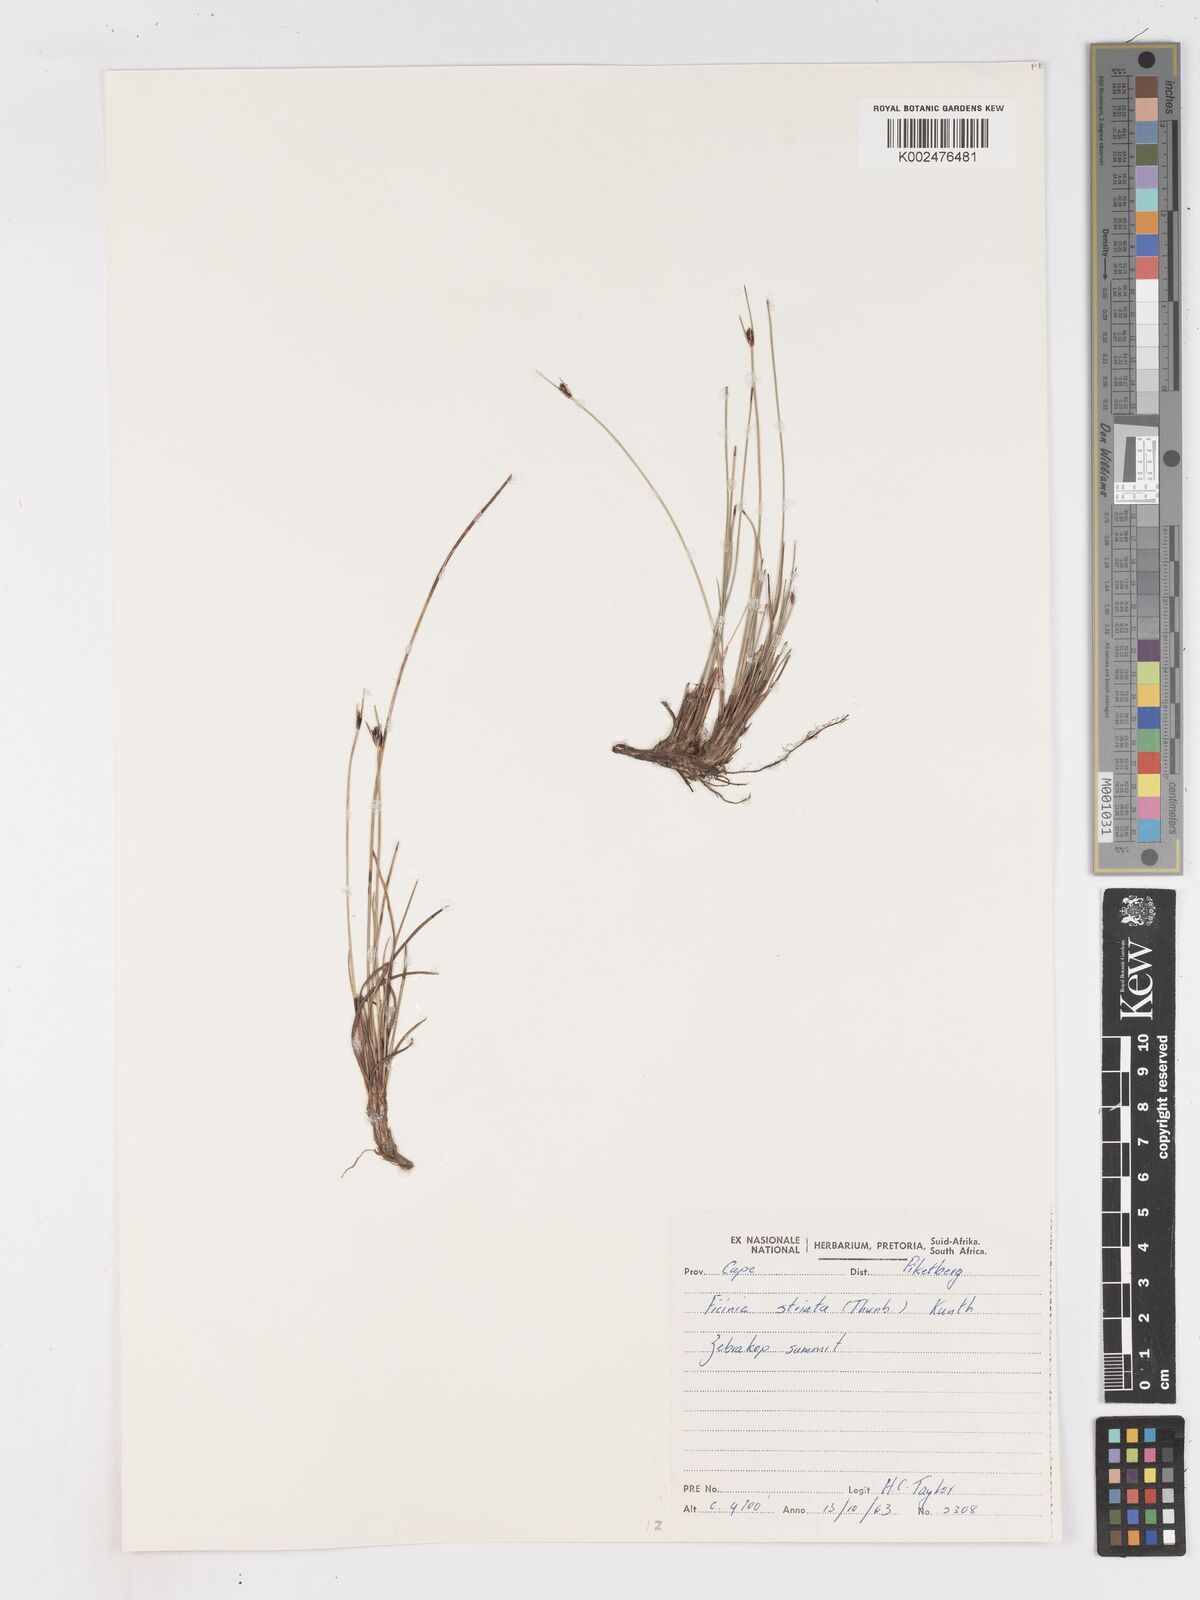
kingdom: Plantae
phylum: Tracheophyta
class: Liliopsida
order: Poales
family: Cyperaceae
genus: Ficinia
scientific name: Ficinia indica
